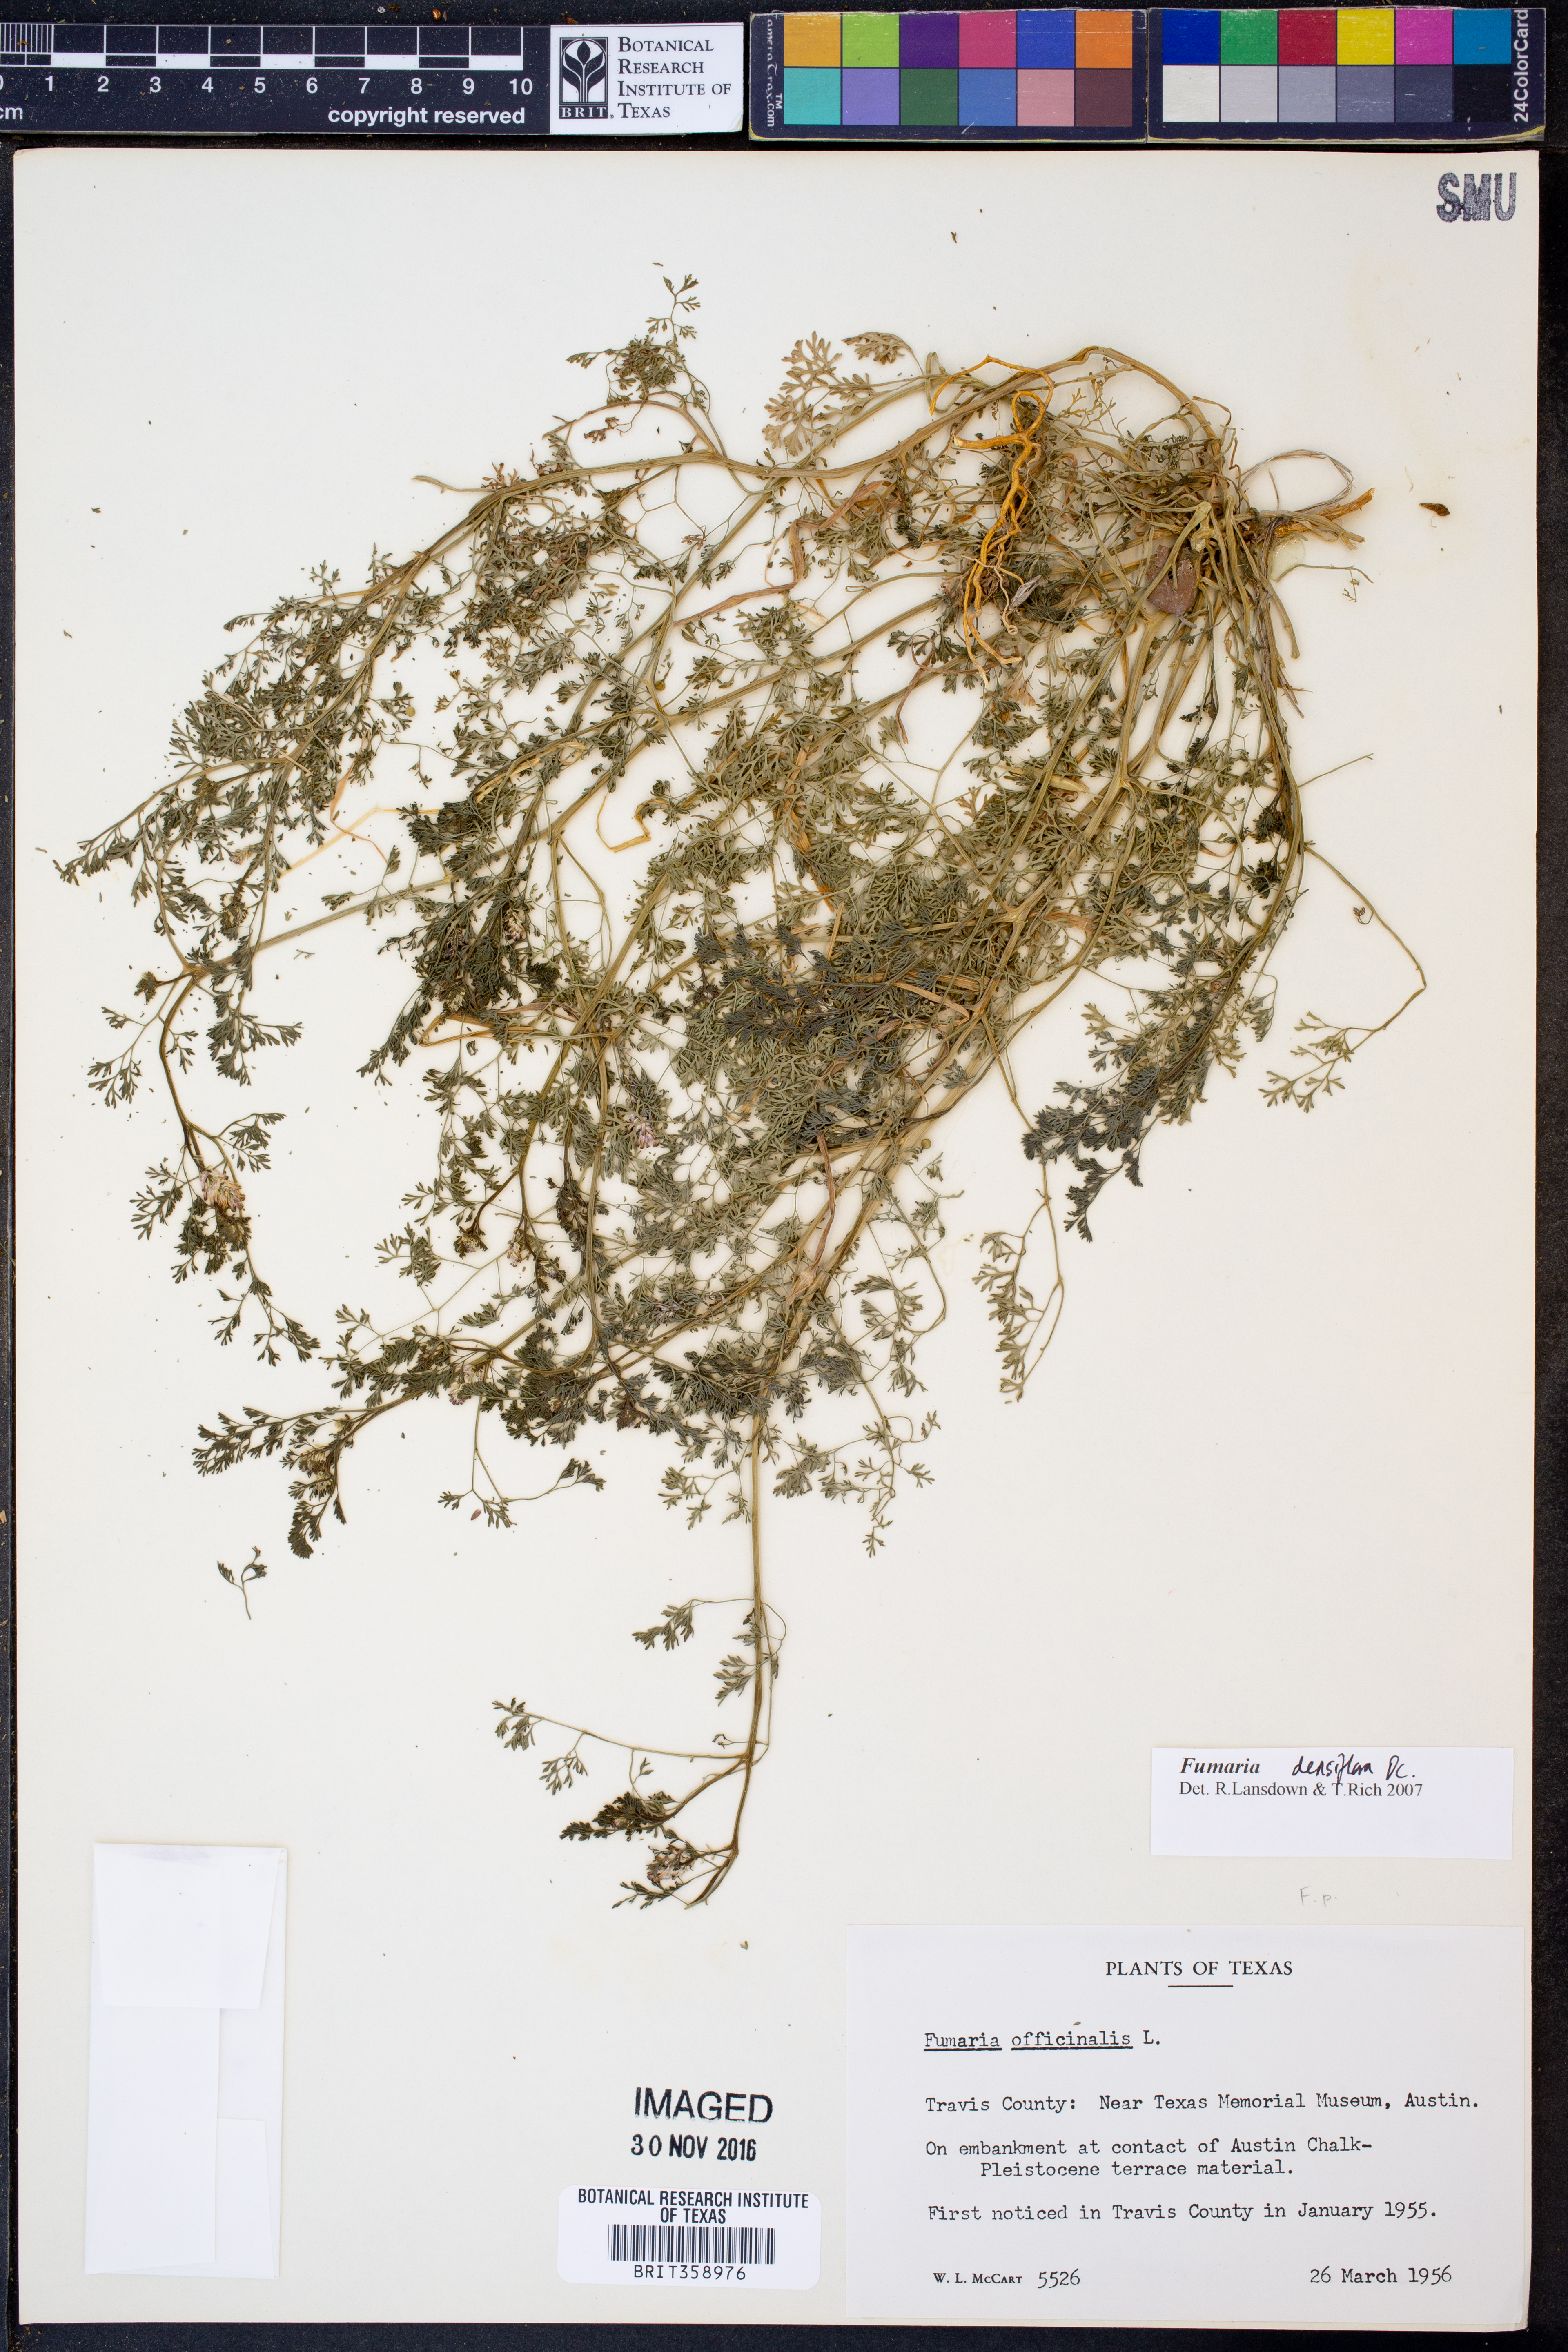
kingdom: Plantae
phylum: Tracheophyta
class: Magnoliopsida
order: Ranunculales
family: Papaveraceae
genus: Fumaria
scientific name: Fumaria densiflora
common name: Dense-flowered fumitory
